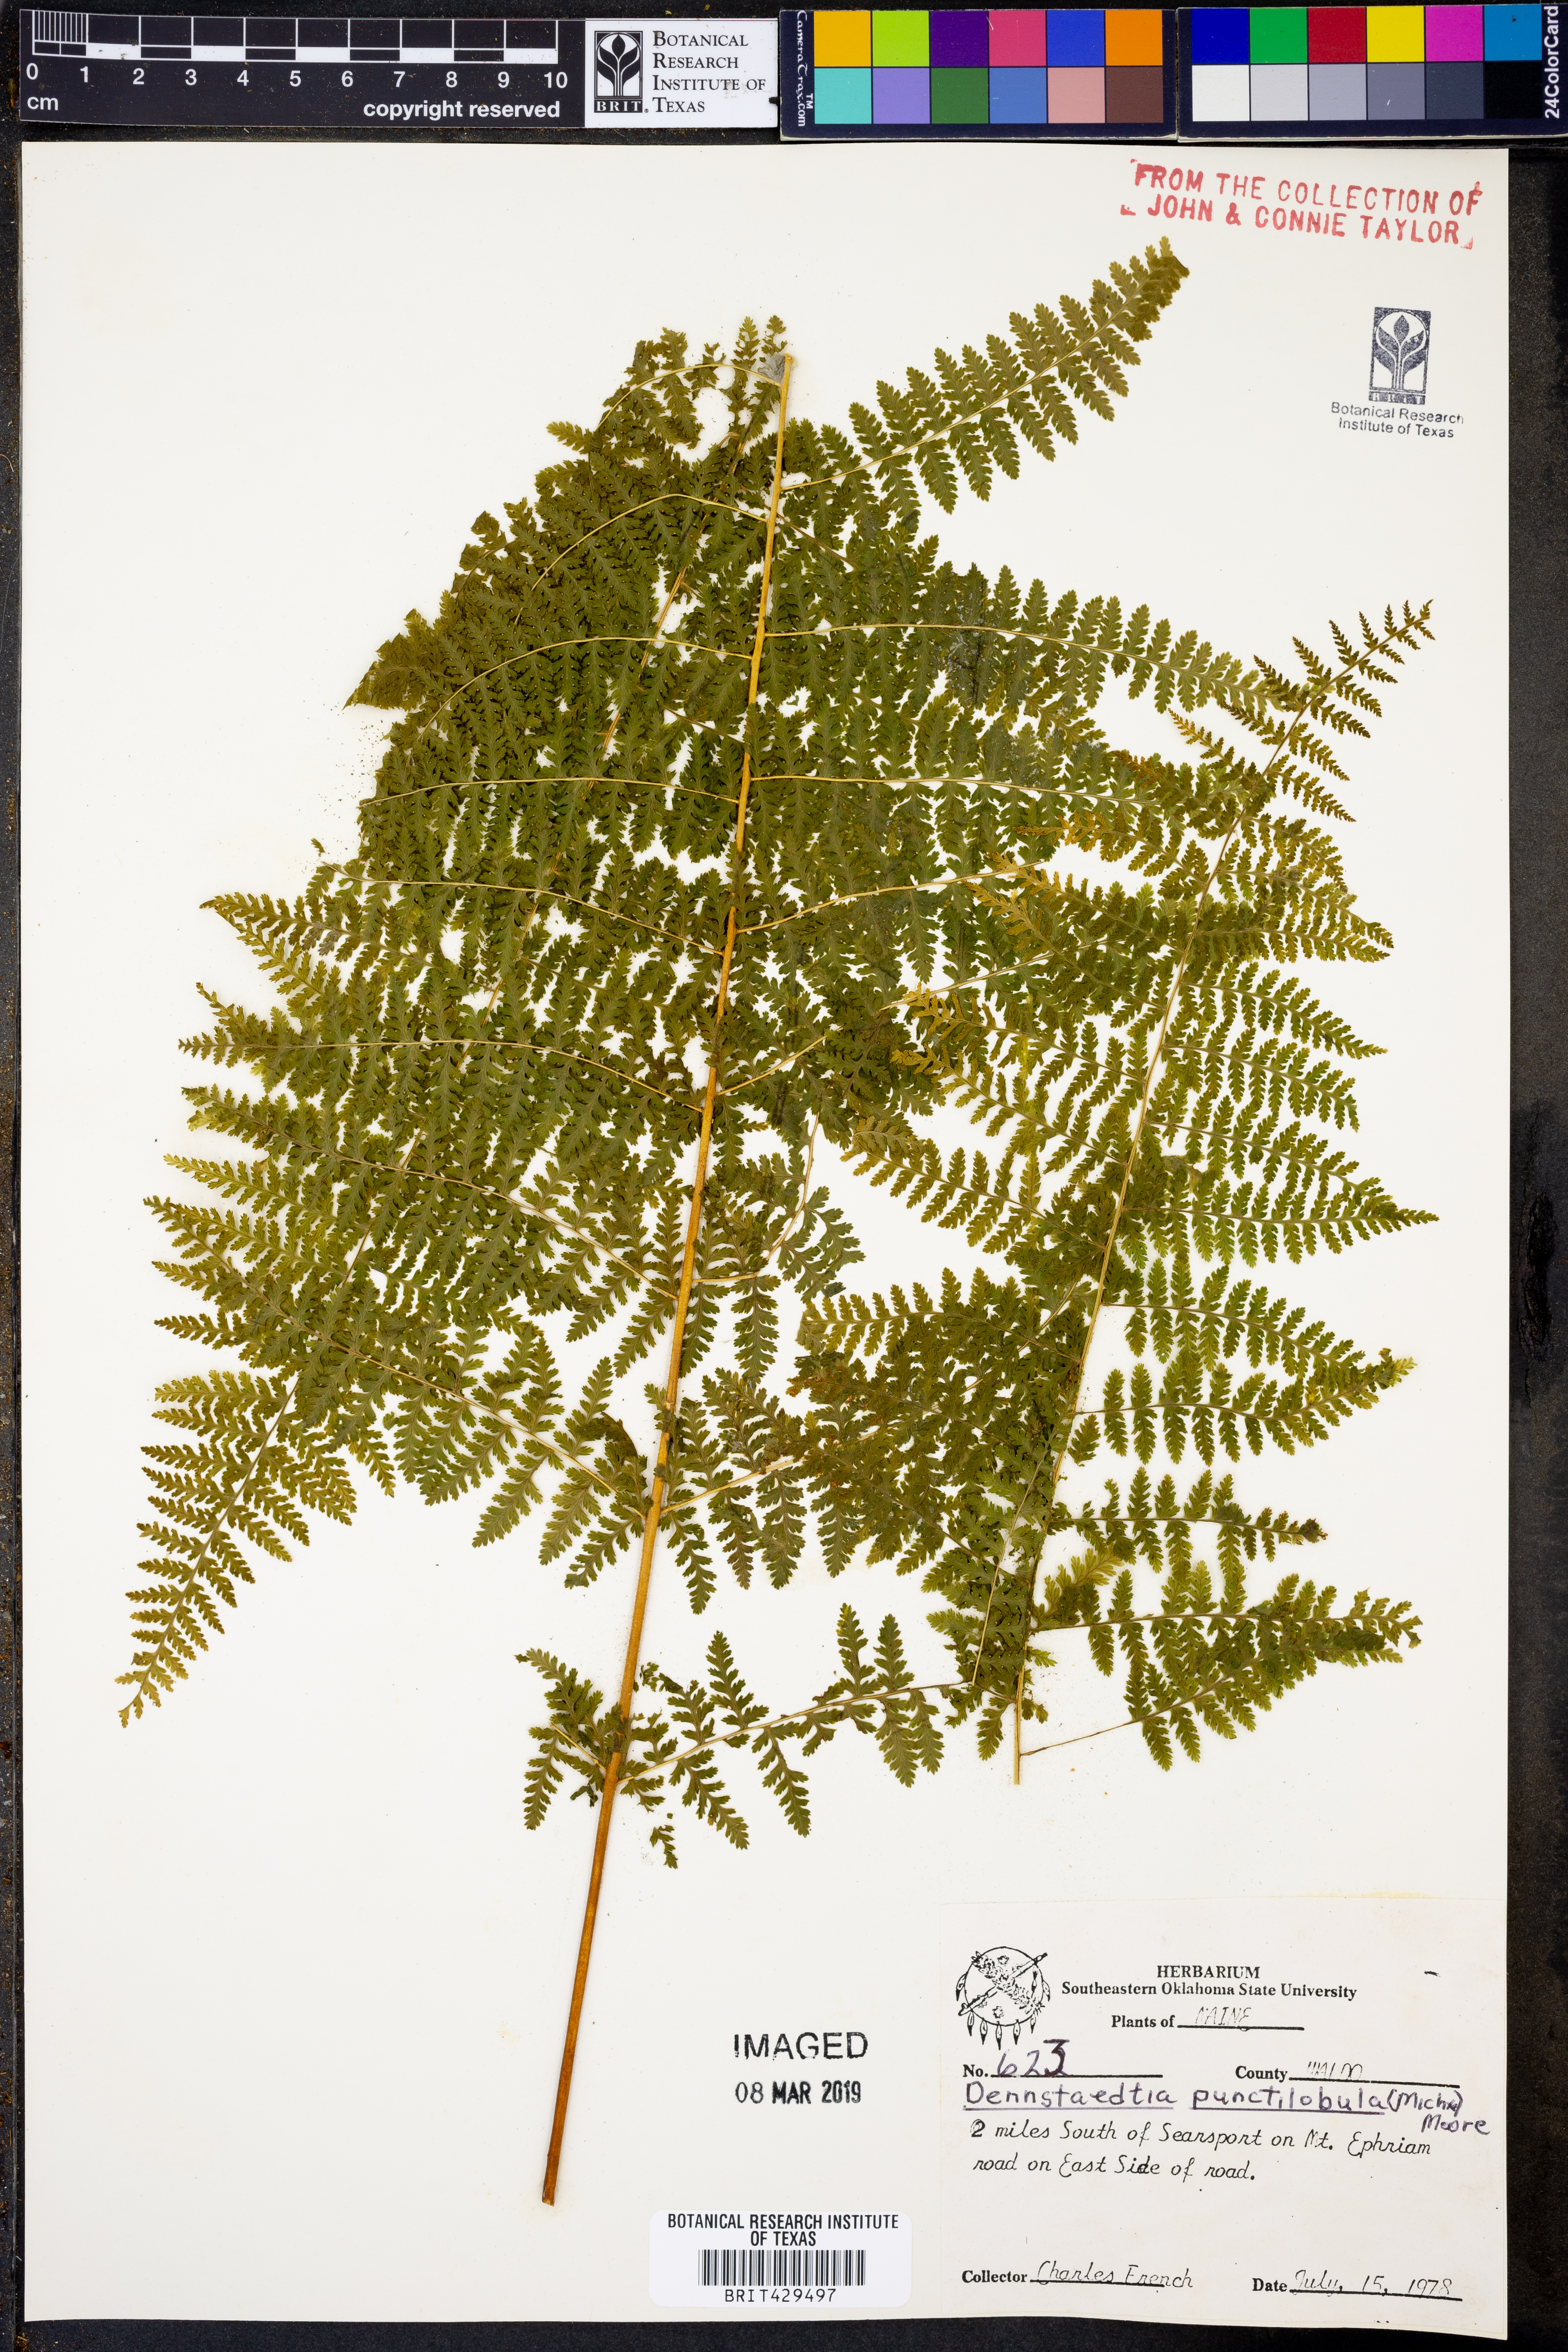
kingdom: Plantae
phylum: Tracheophyta
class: Polypodiopsida
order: Polypodiales
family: Dennstaedtiaceae
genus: Sitobolium
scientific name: Sitobolium punctilobum
